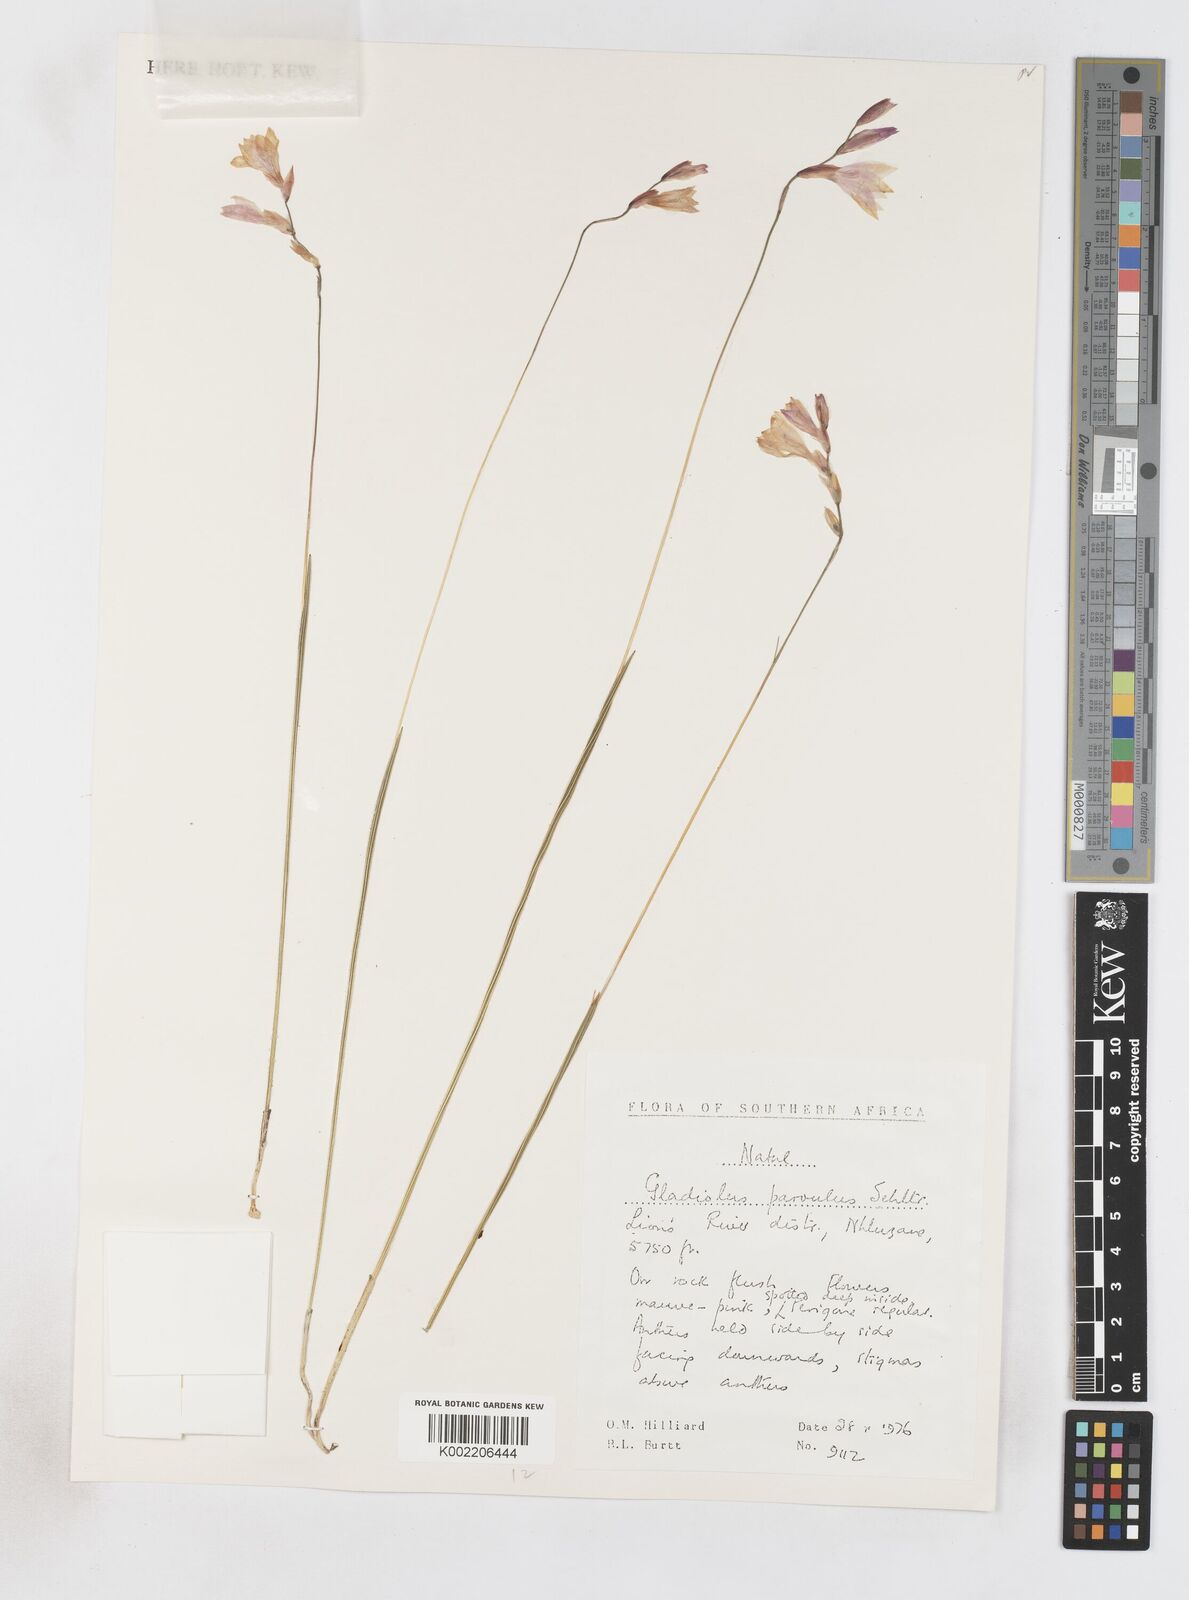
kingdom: Plantae
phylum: Tracheophyta
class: Liliopsida
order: Asparagales
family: Iridaceae
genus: Gladiolus
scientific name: Gladiolus parvulus
